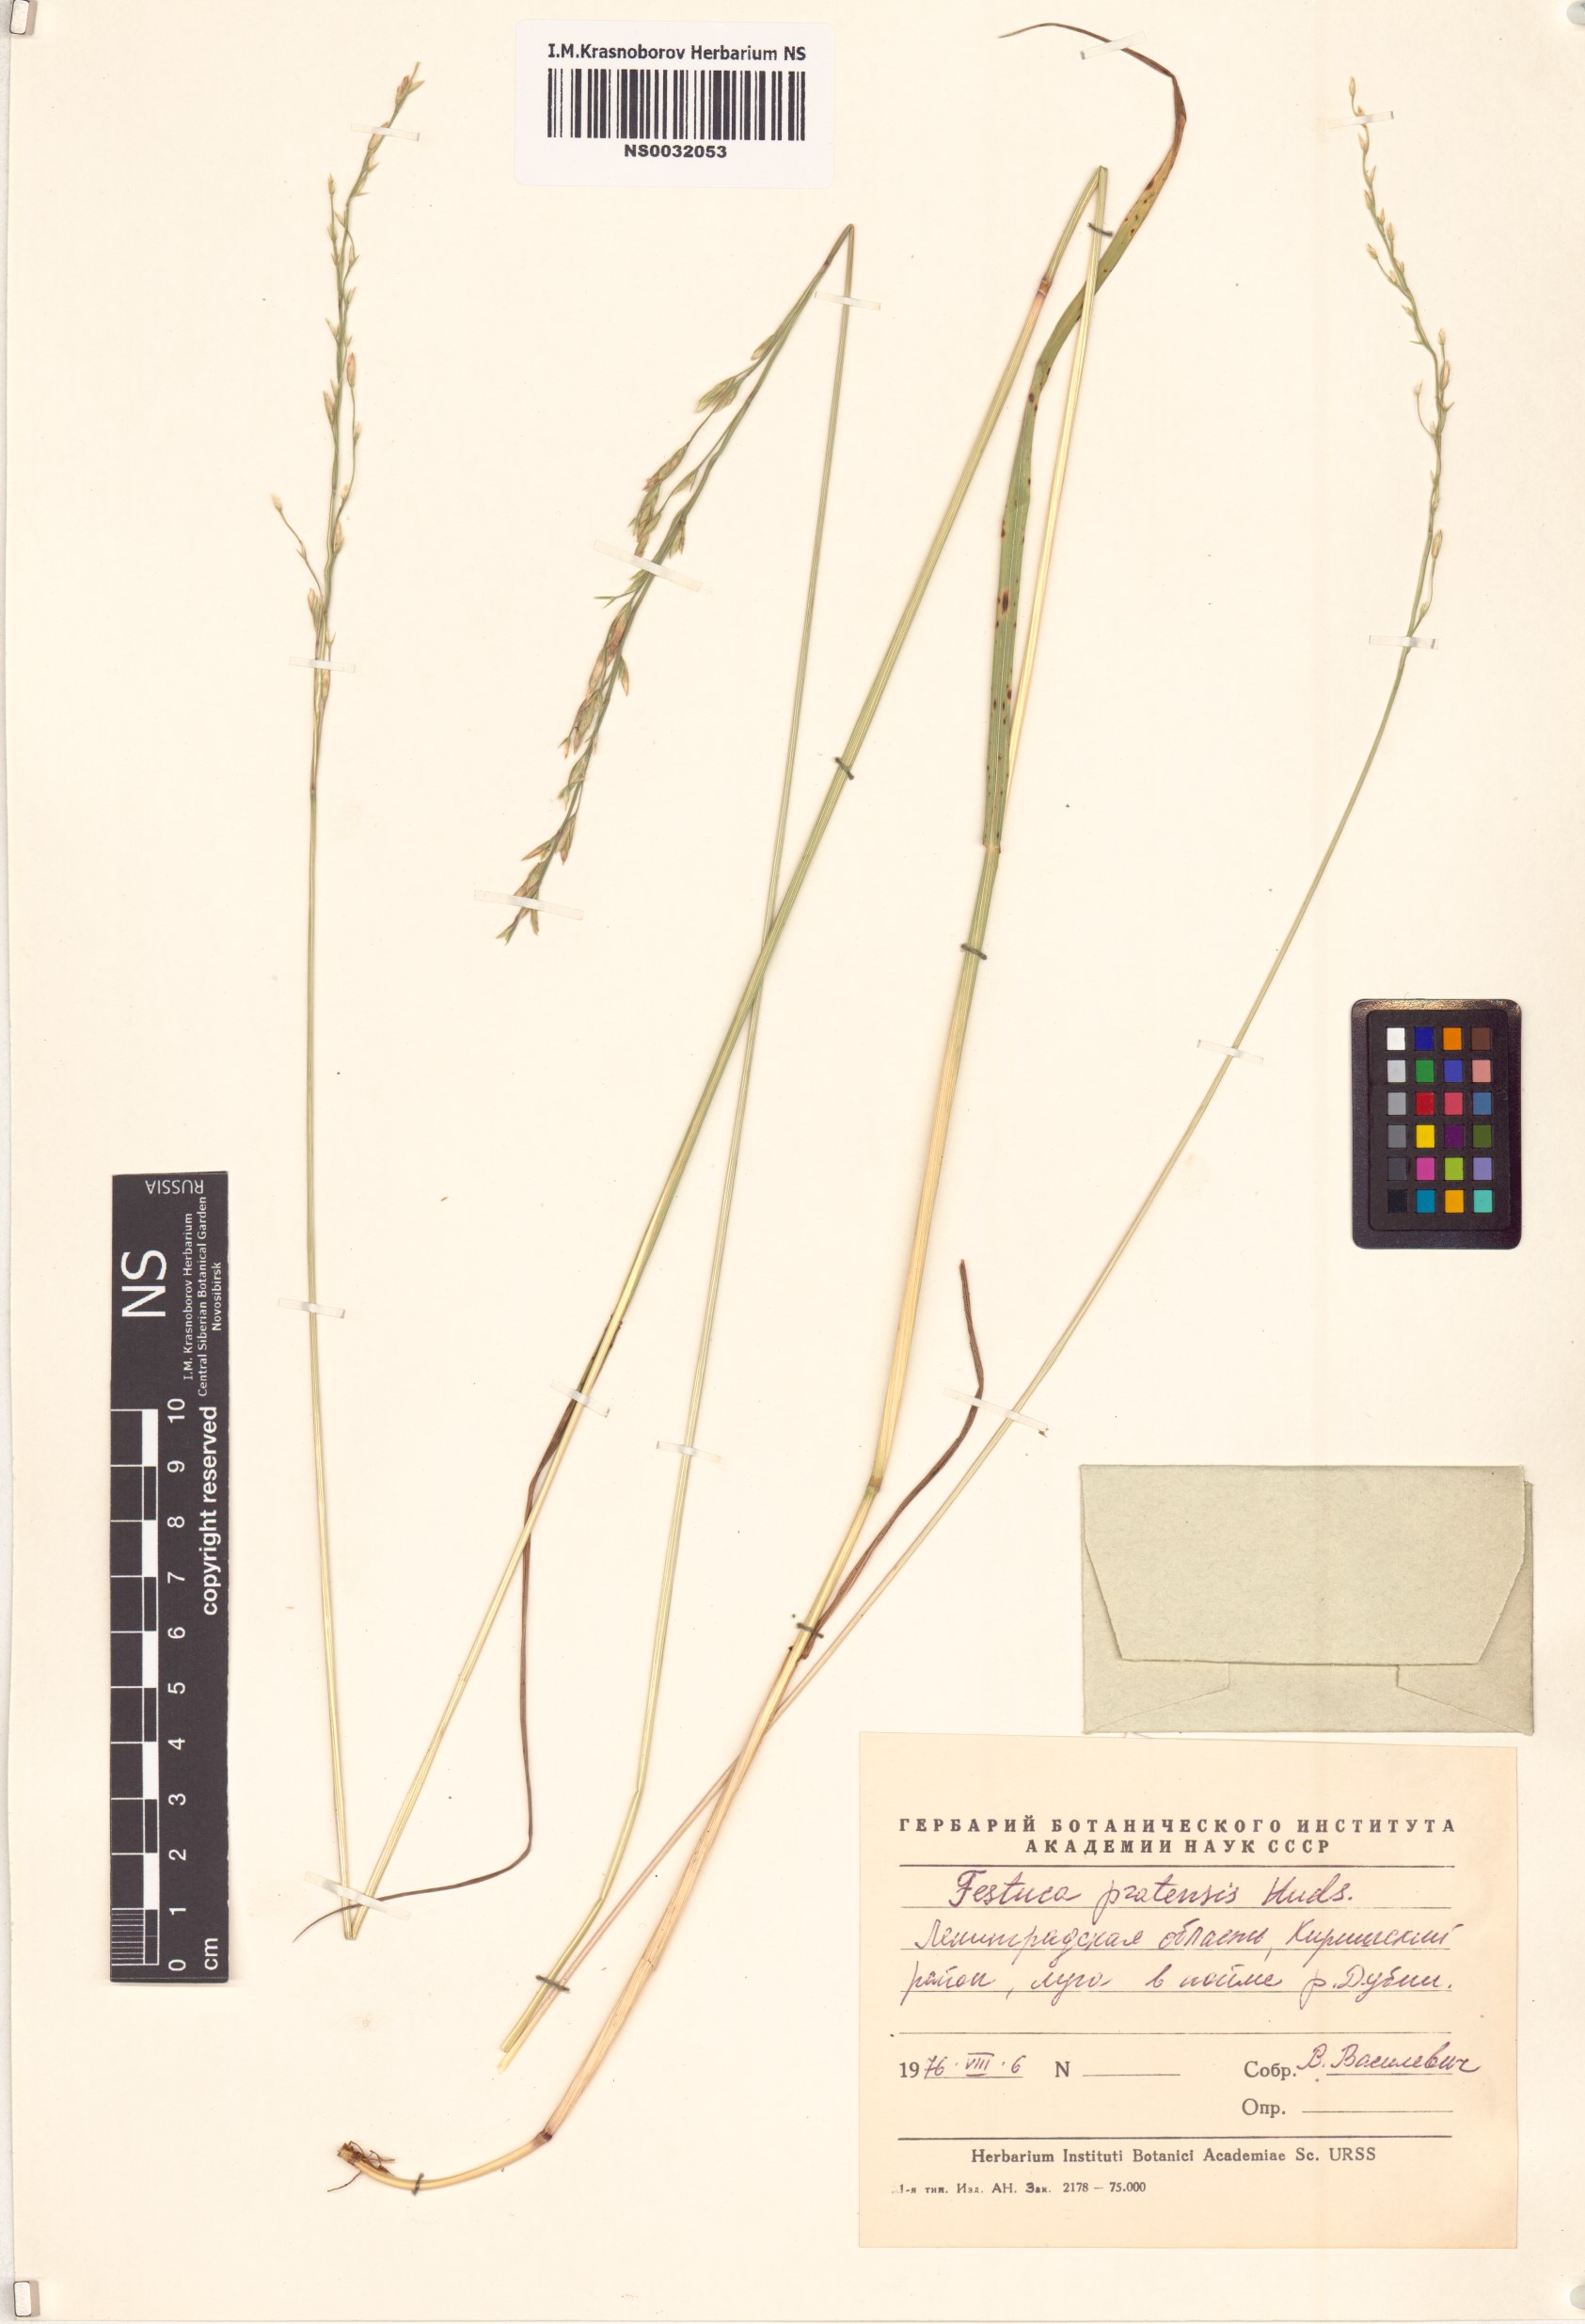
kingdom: Plantae
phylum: Tracheophyta
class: Liliopsida
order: Poales
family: Poaceae
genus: Lolium
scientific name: Lolium pratense
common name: Dover grass
